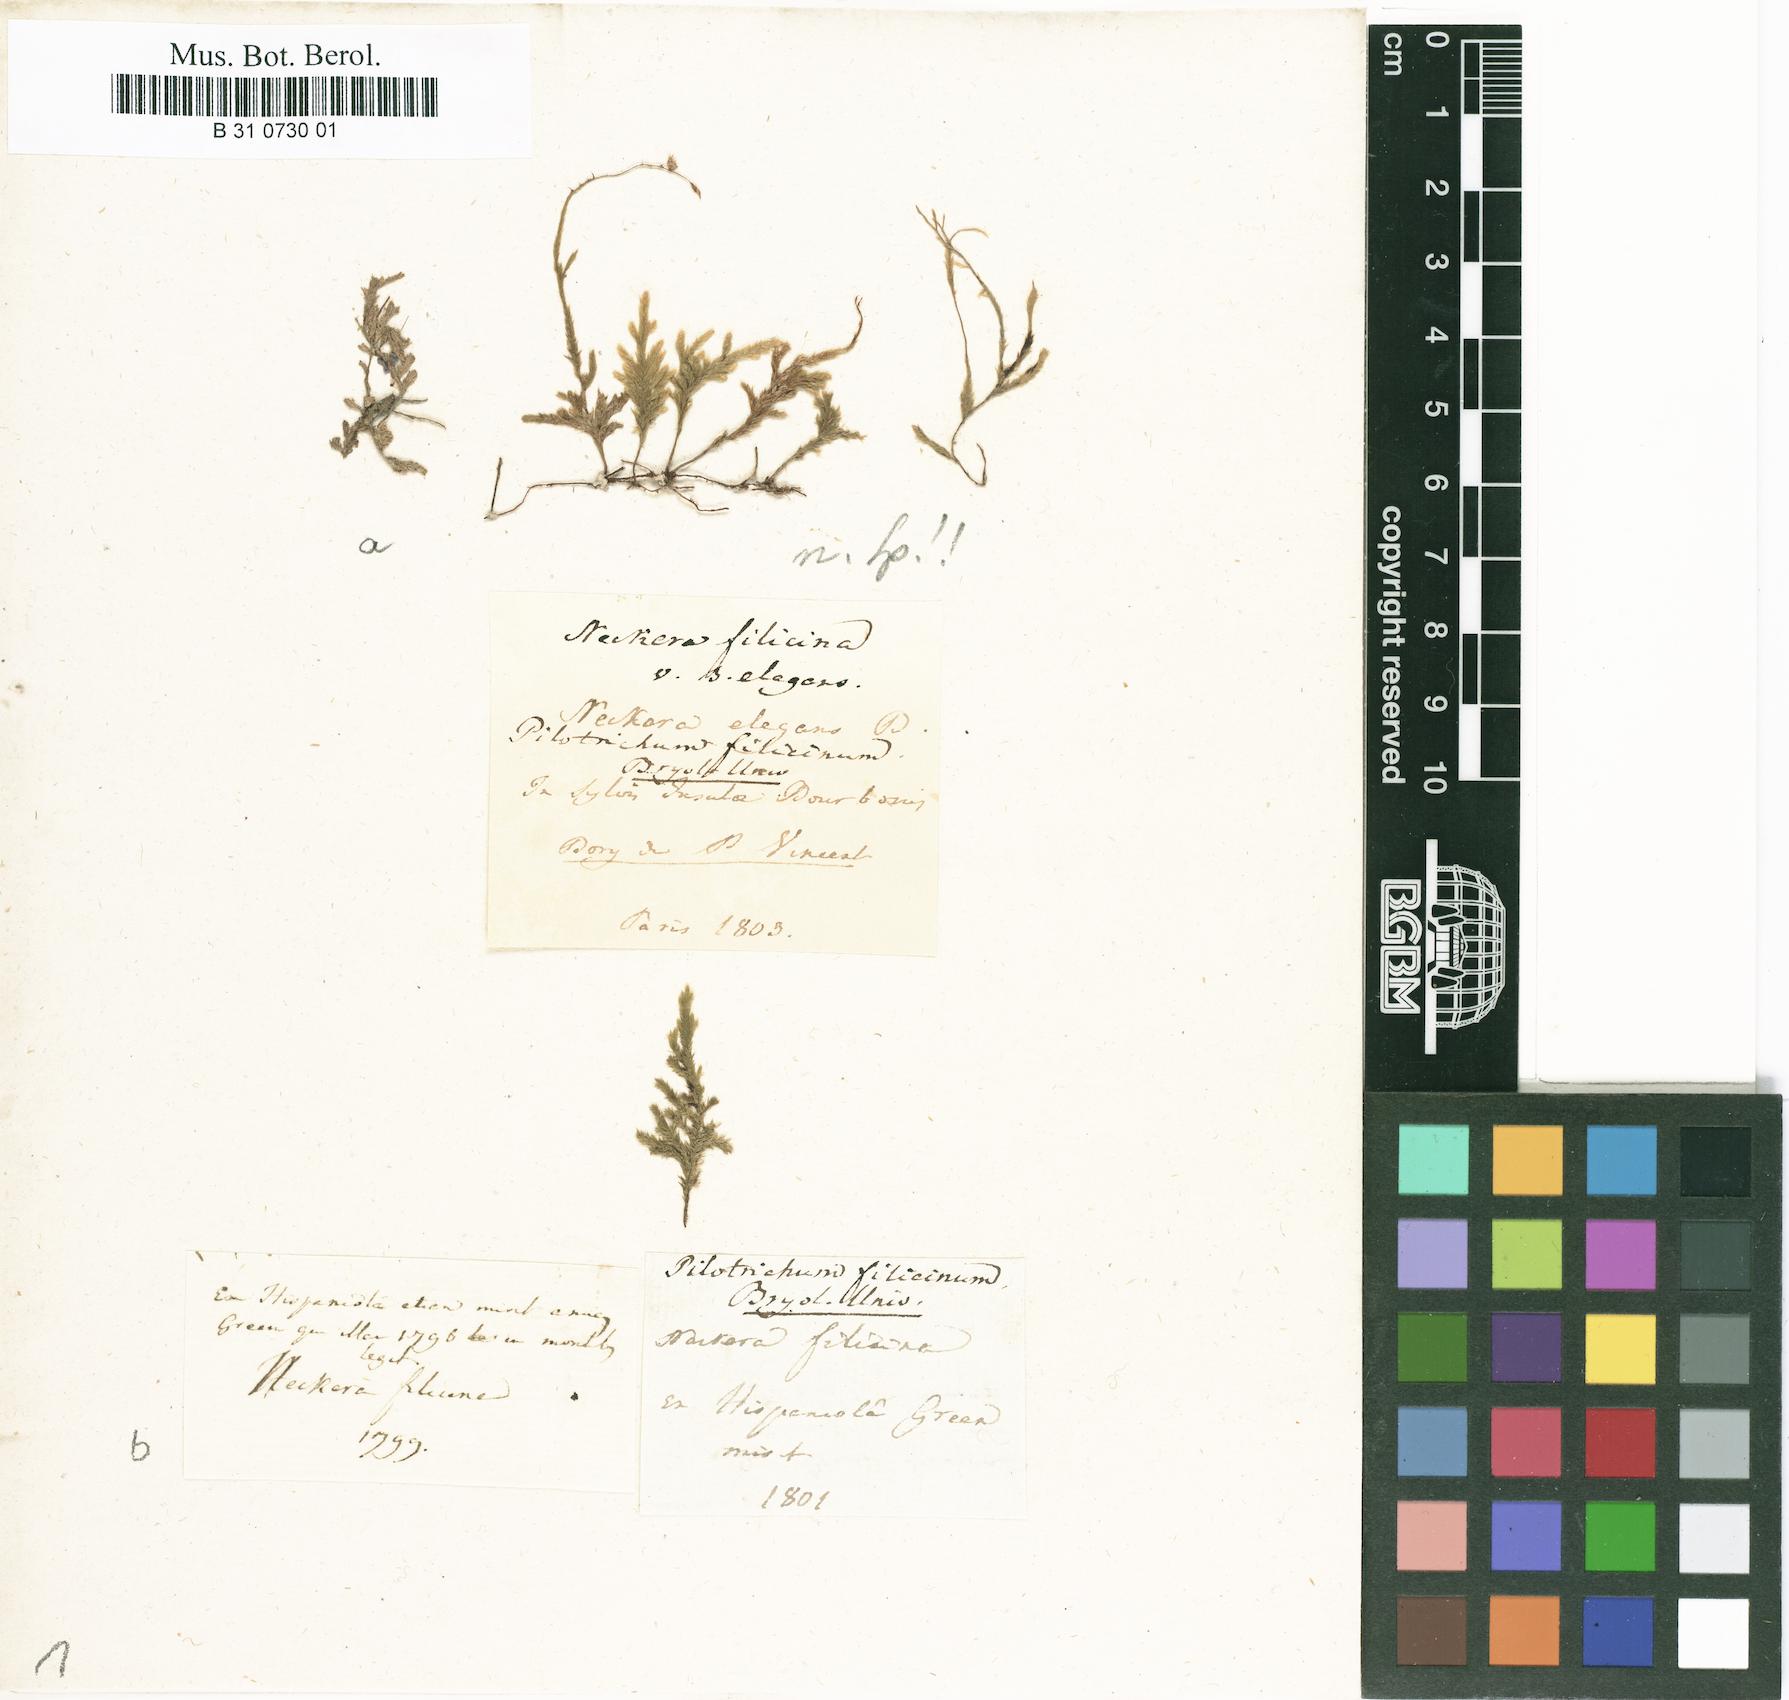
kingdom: Plantae
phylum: Bryophyta
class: Bryopsida
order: Hypnales
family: Pterobryaceae
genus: Pireella
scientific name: Pireella filicina
